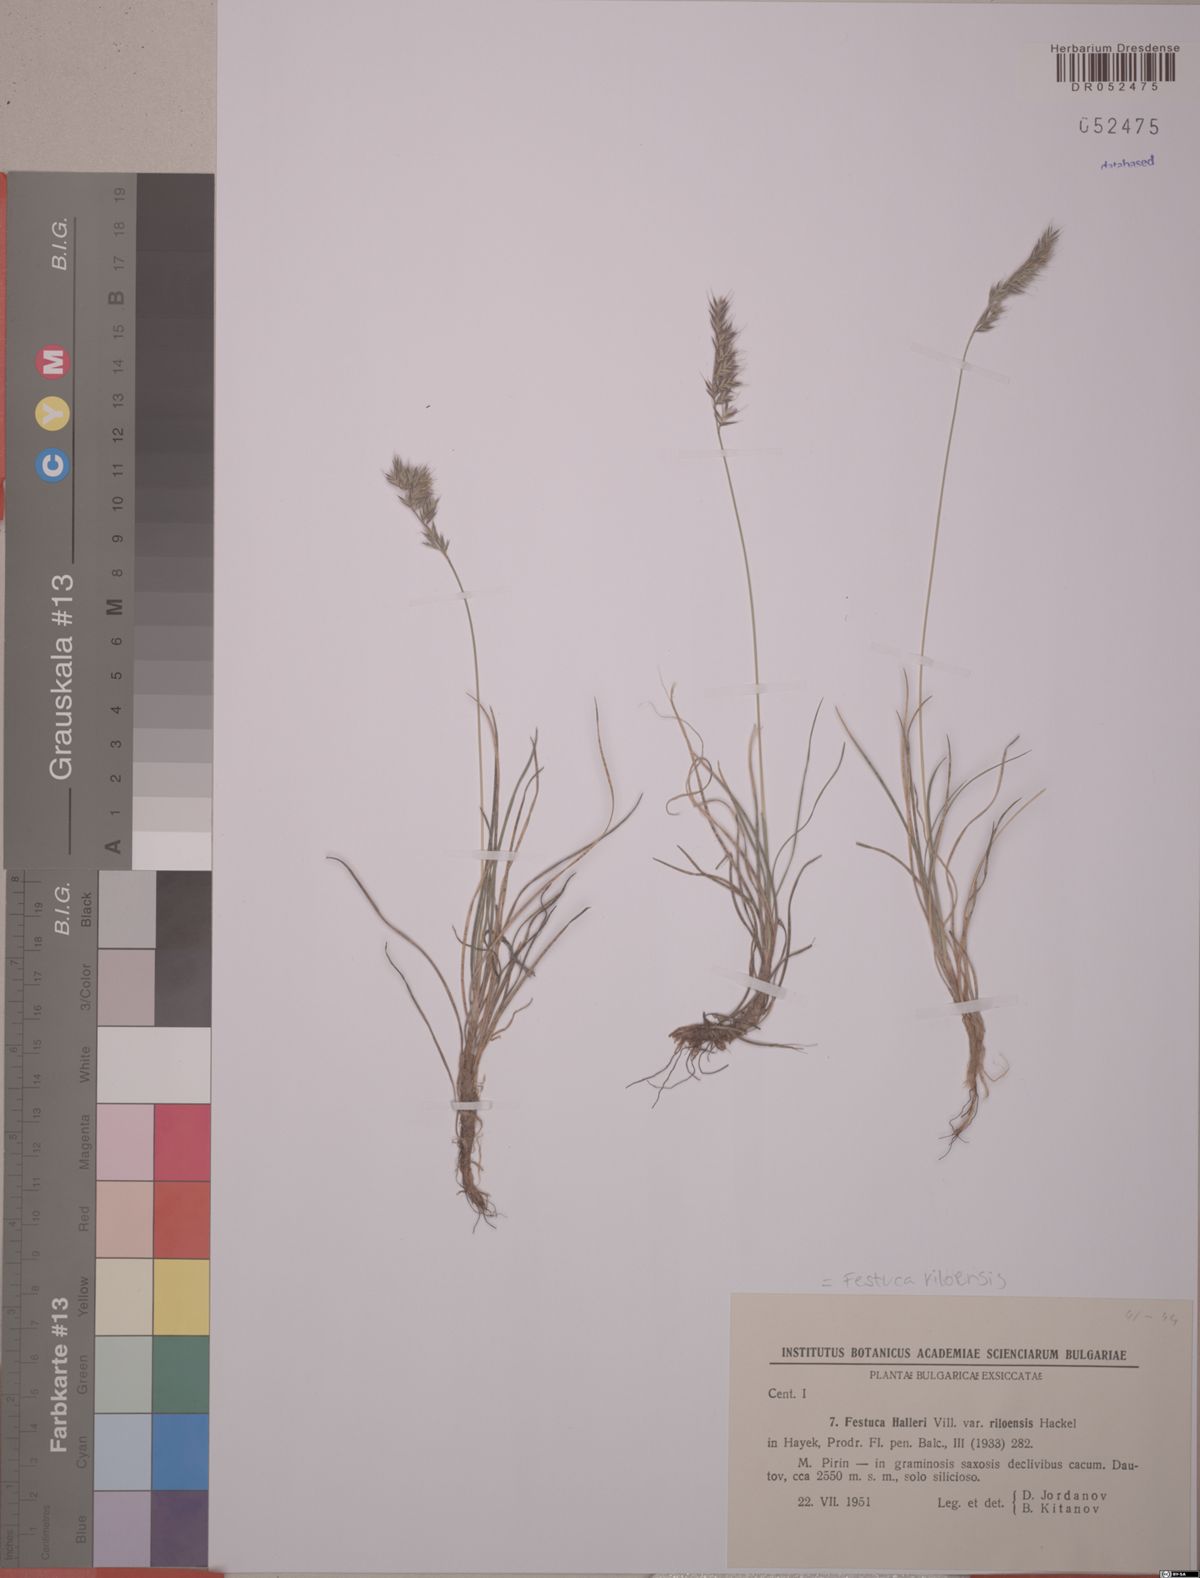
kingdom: Plantae
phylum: Tracheophyta
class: Liliopsida
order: Poales
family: Poaceae
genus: Festuca
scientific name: Festuca riloensis
